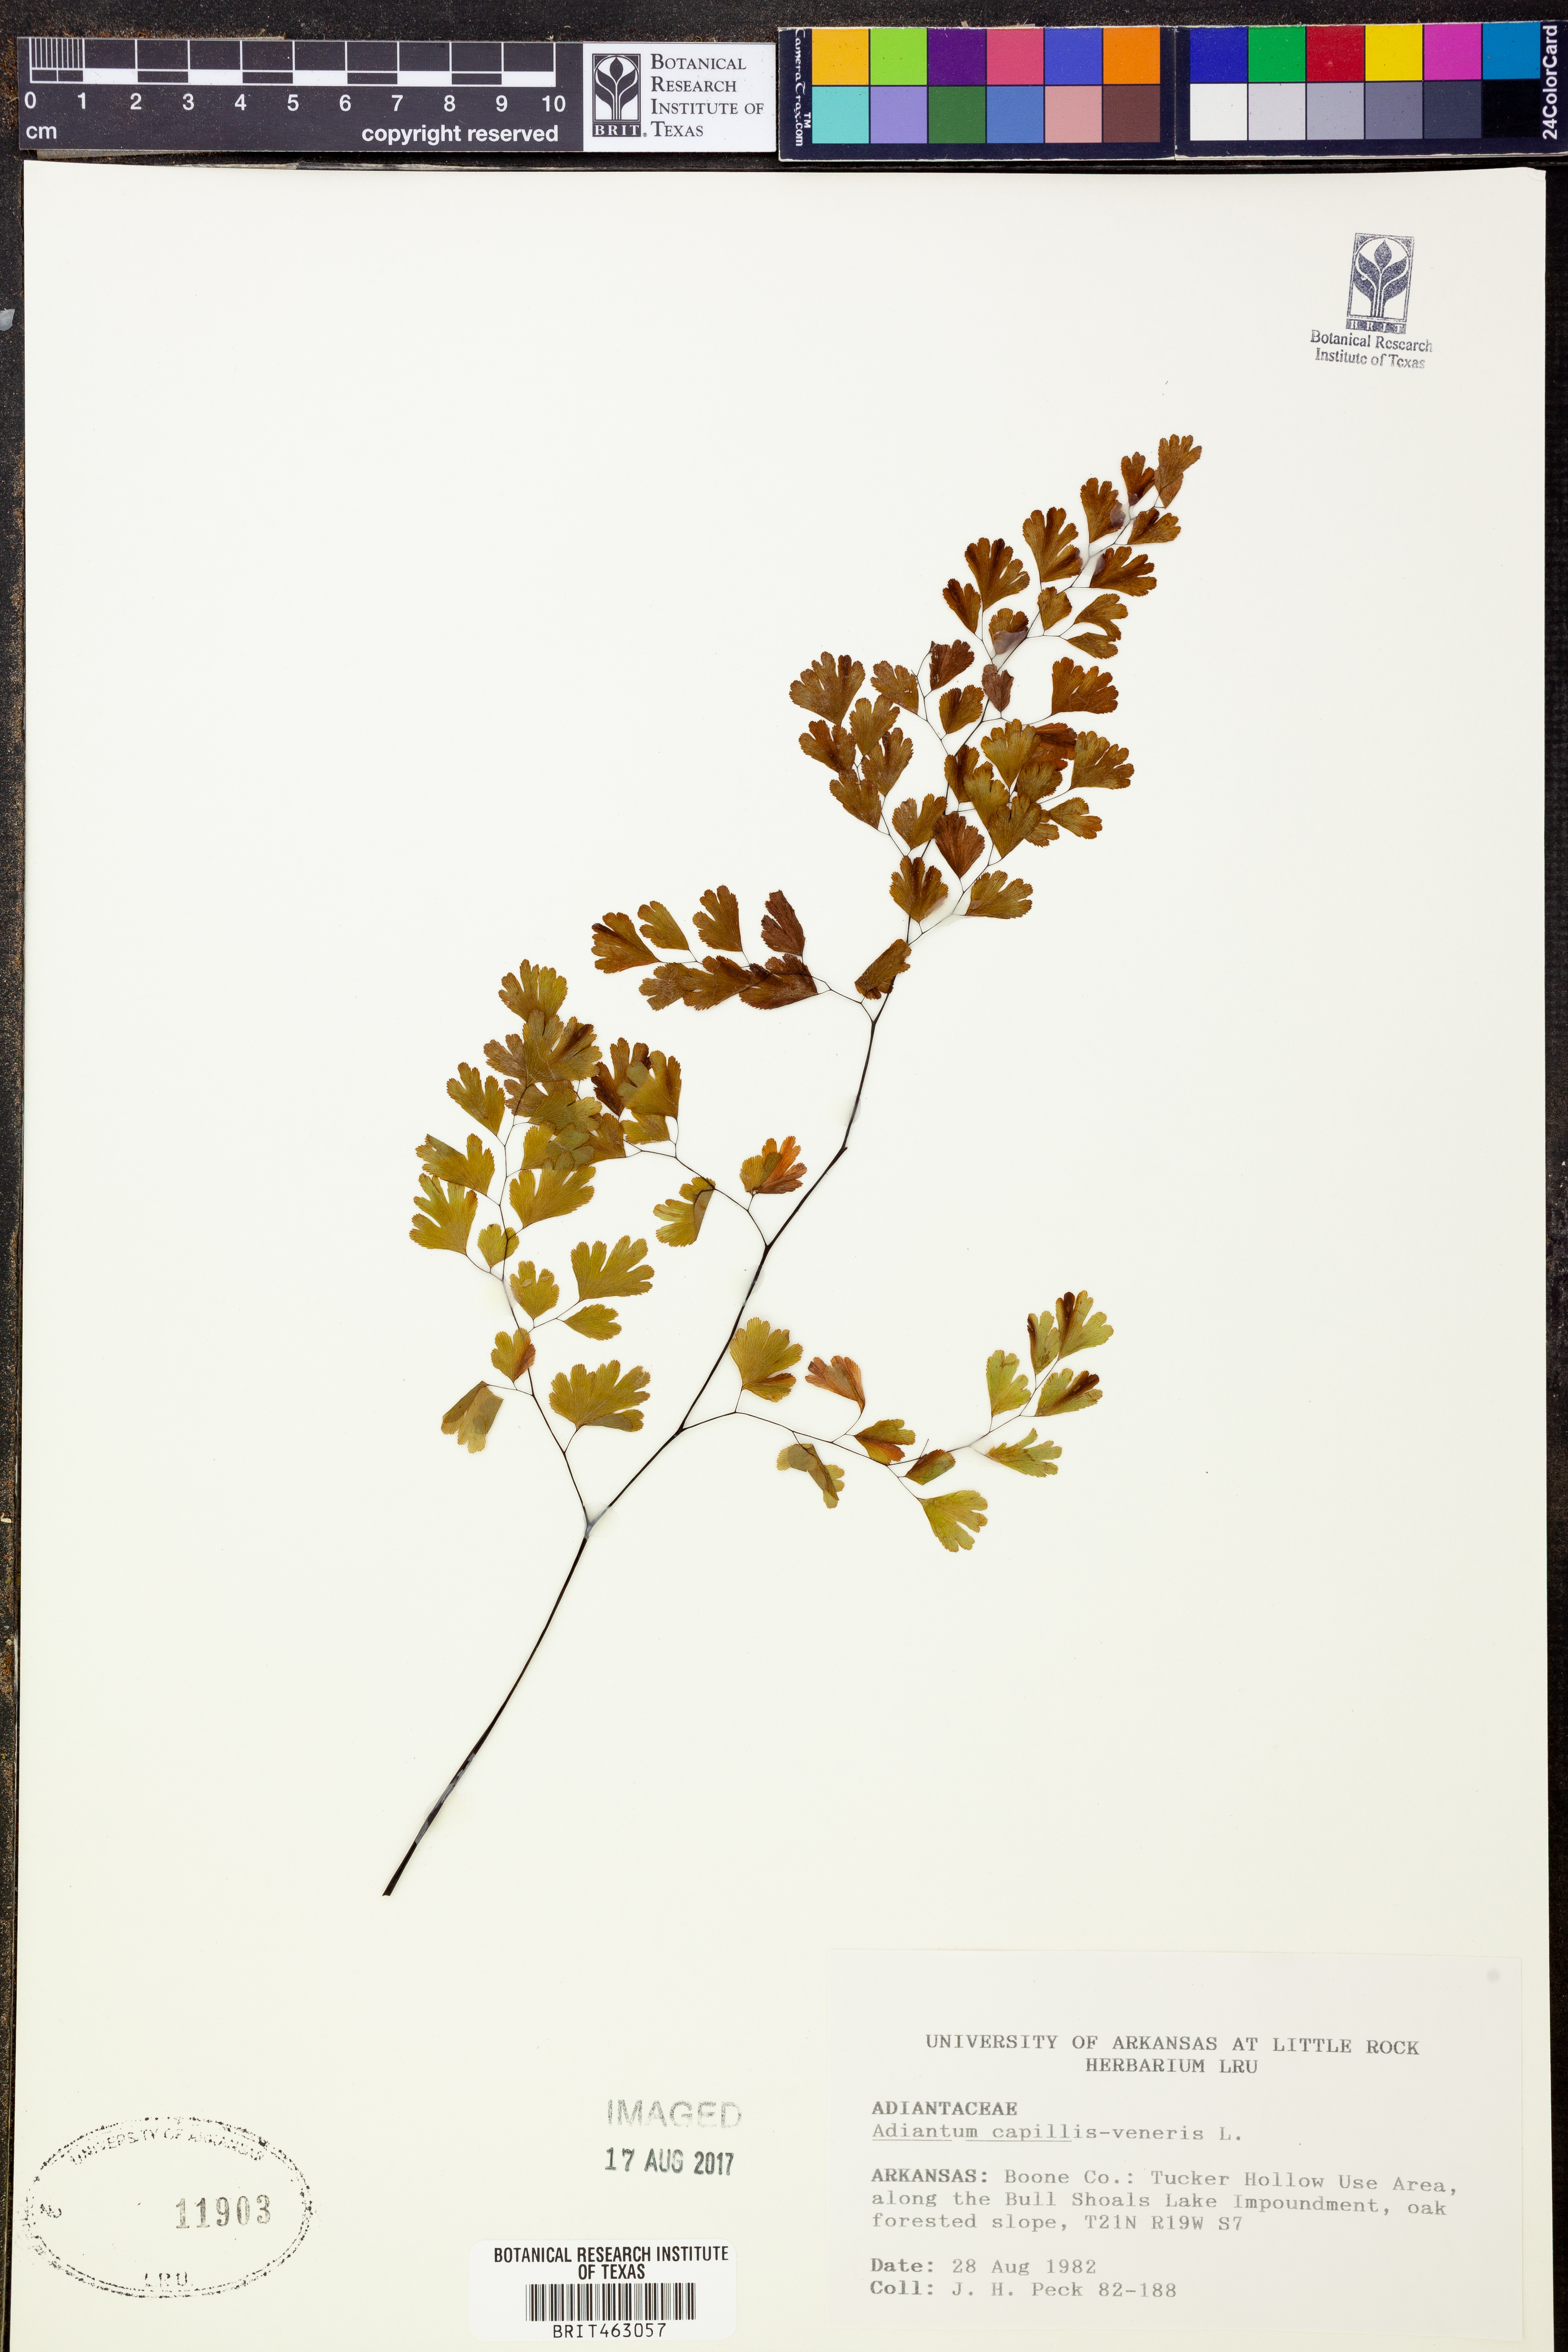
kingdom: Plantae
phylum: Tracheophyta
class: Polypodiopsida
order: Polypodiales
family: Pteridaceae
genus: Adiantum
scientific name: Adiantum capillus-veneris
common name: Maidenhair fern
